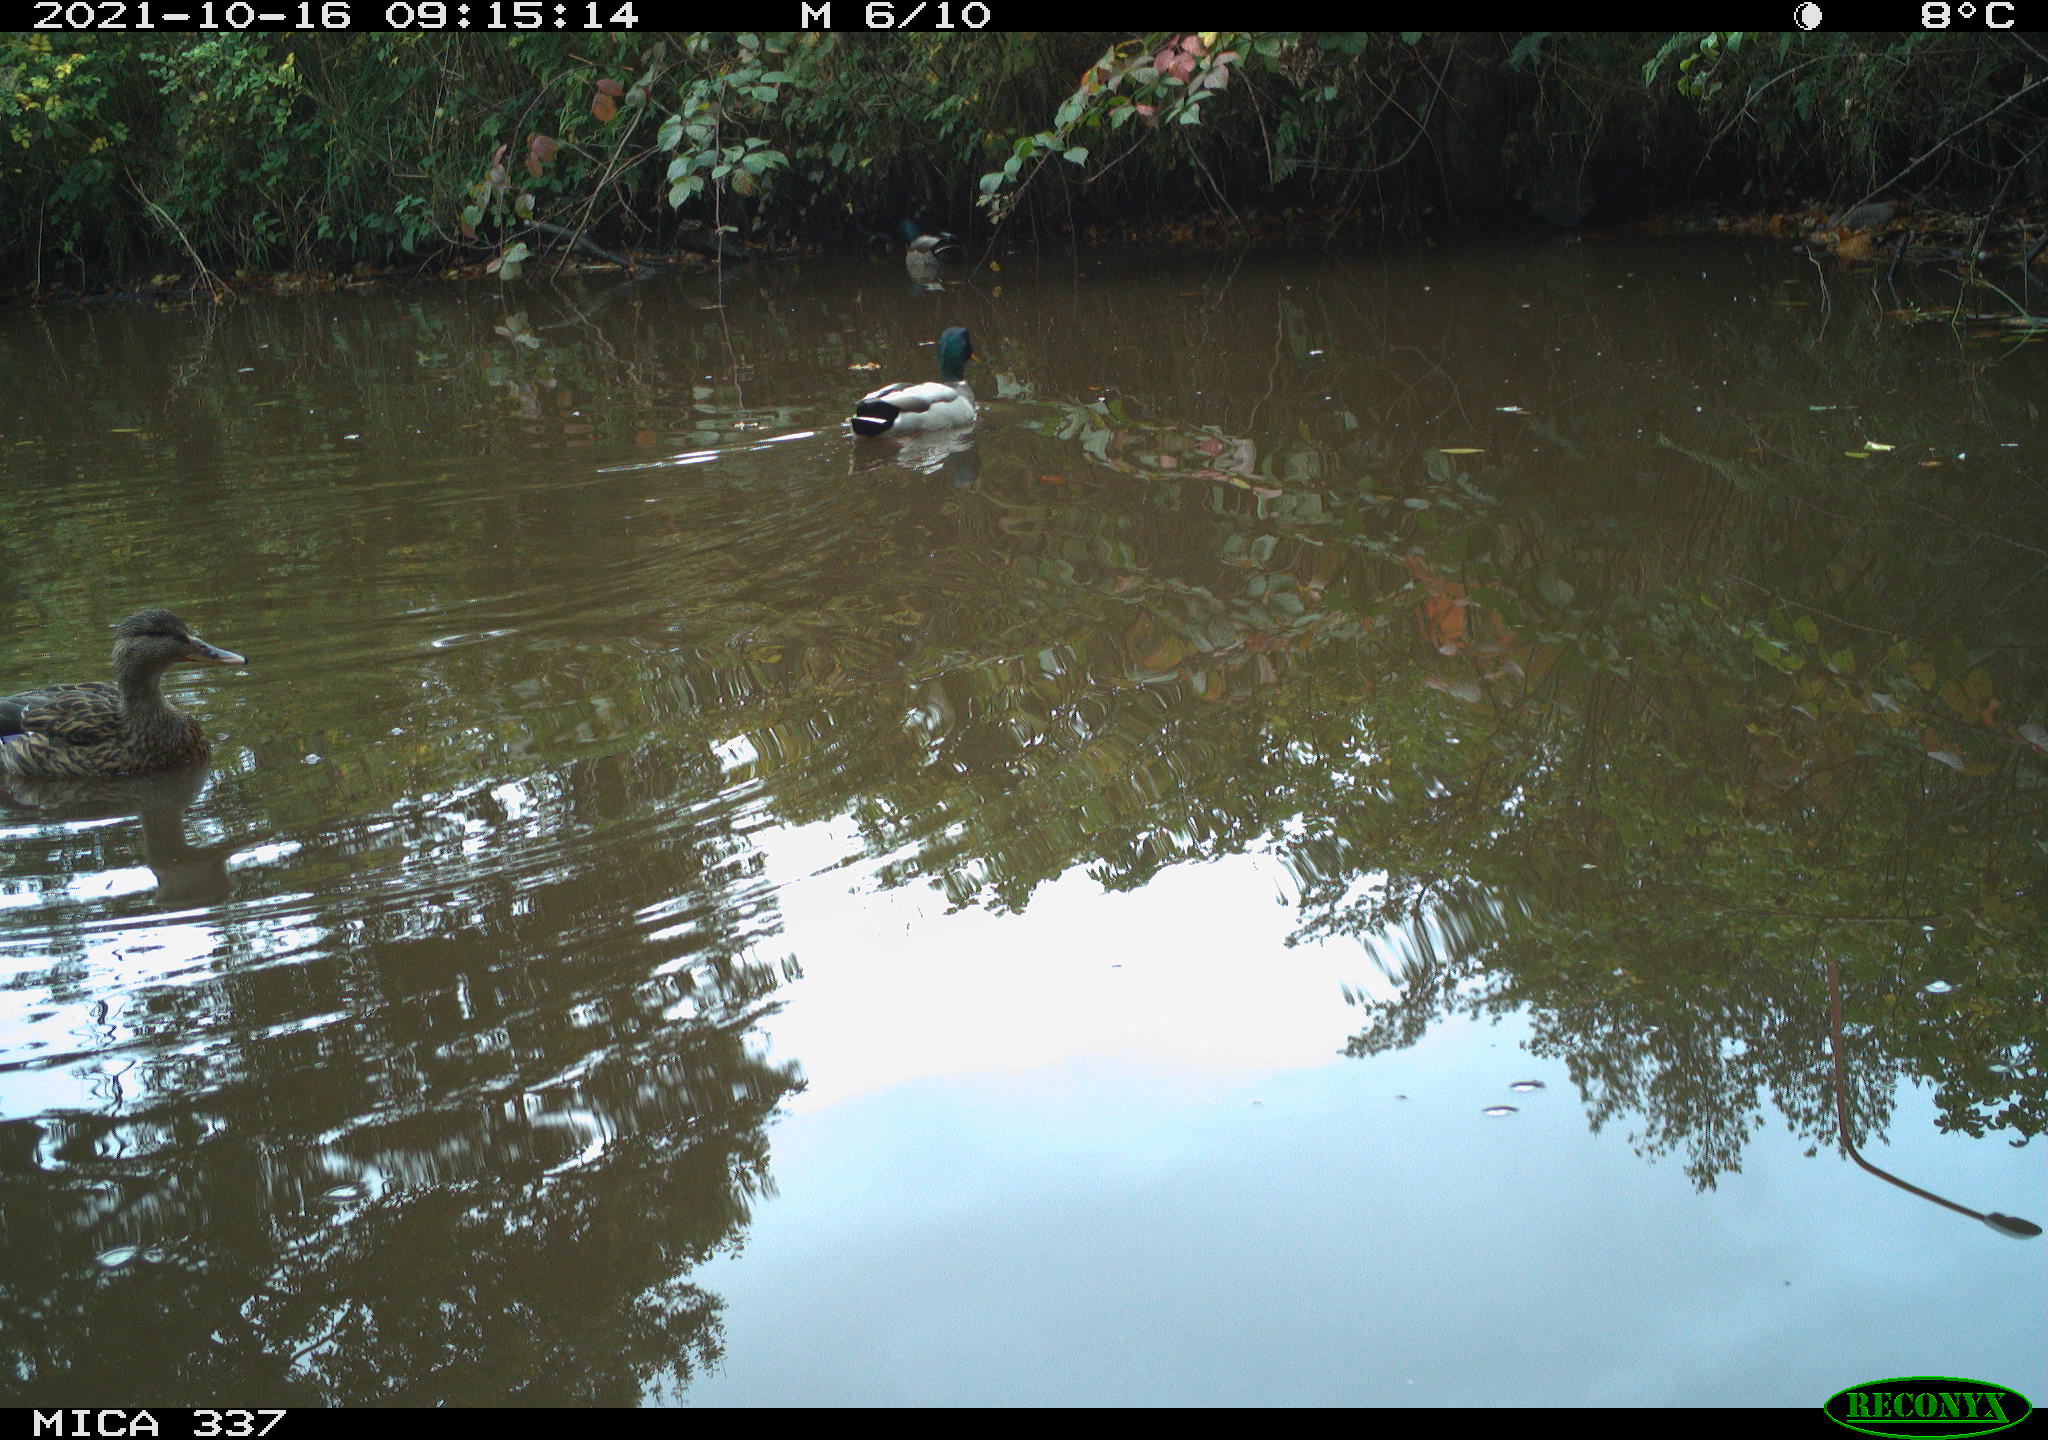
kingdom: Animalia
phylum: Chordata
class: Aves
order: Anseriformes
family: Anatidae
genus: Anas
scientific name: Anas platyrhynchos
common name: Mallard
